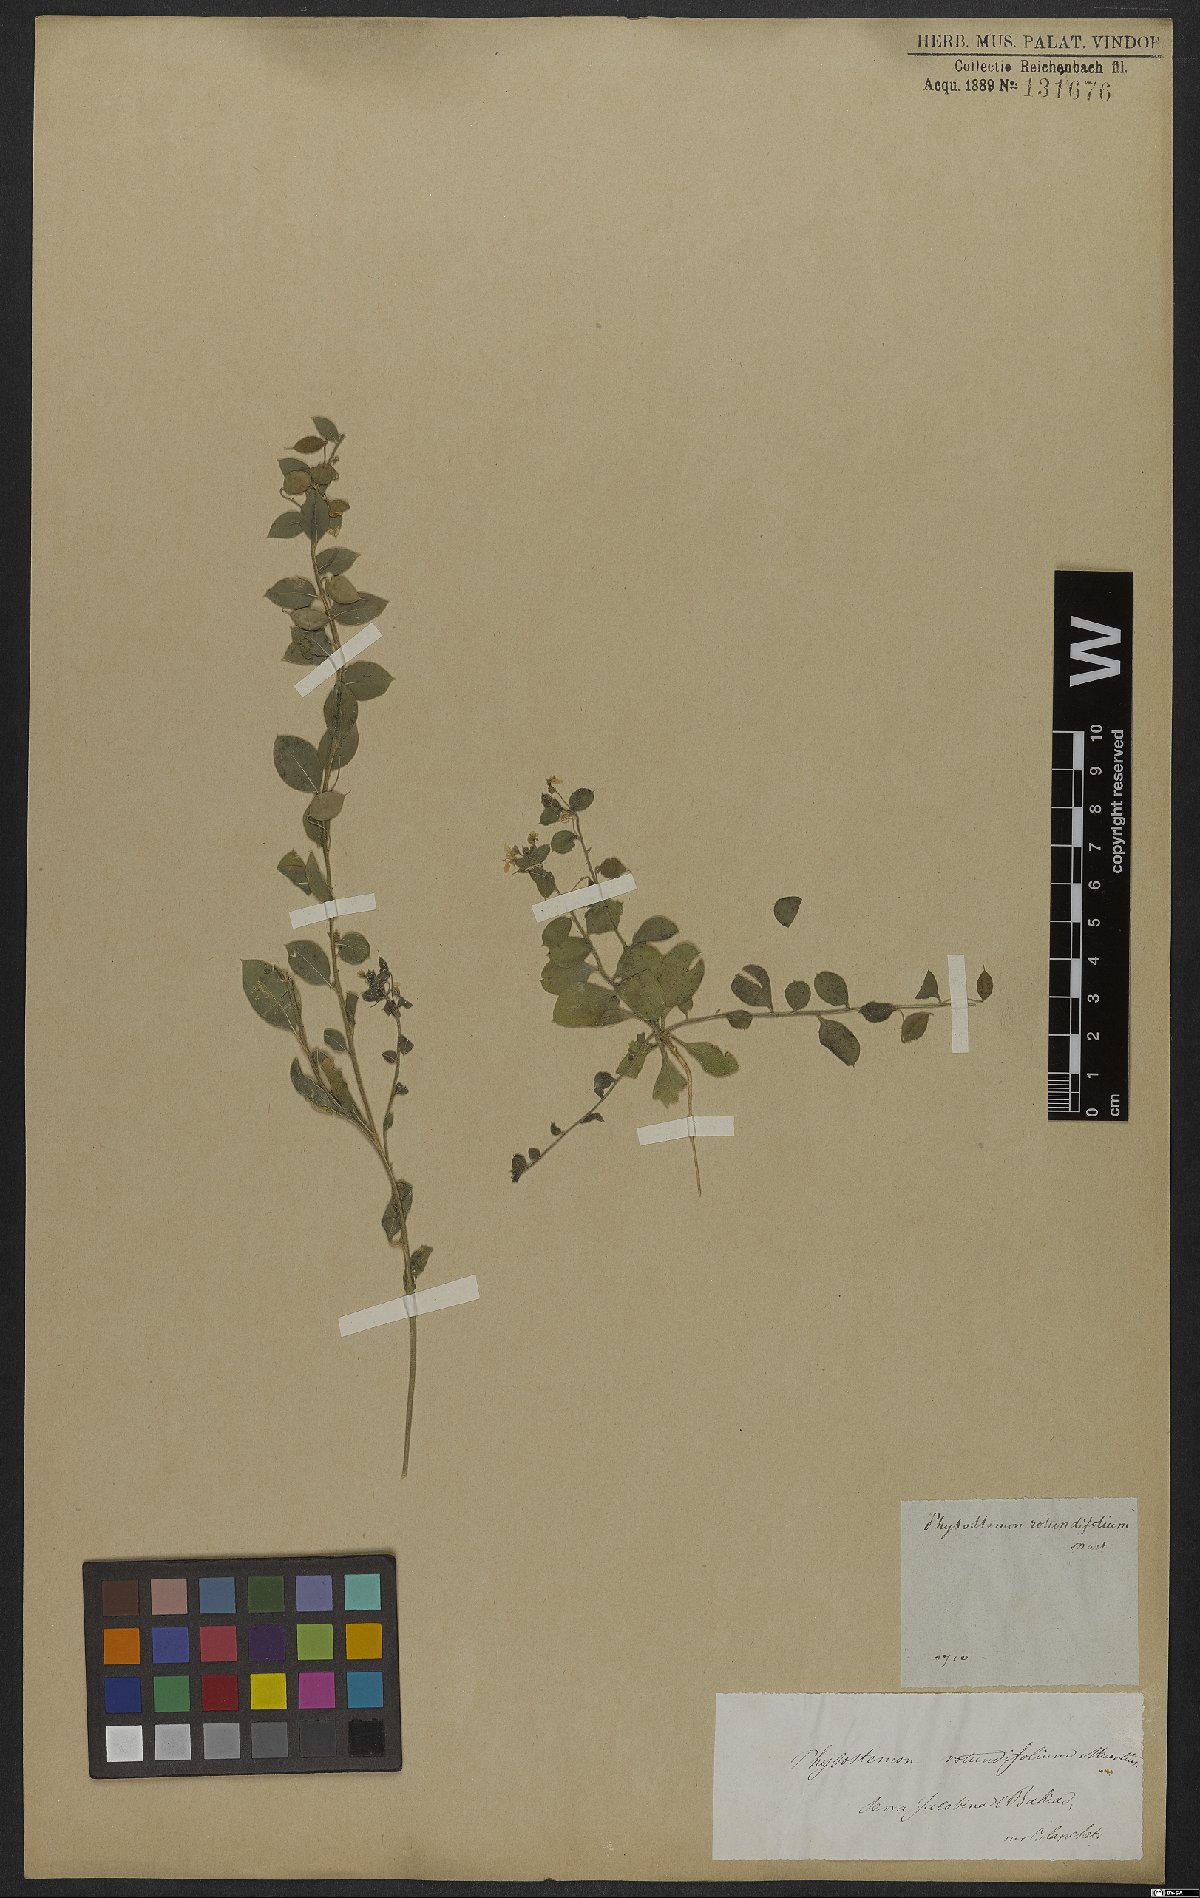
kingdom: Plantae
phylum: Tracheophyta
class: Magnoliopsida
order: Brassicales
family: Cleomaceae
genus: Physostemon
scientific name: Physostemon rotundifolius
